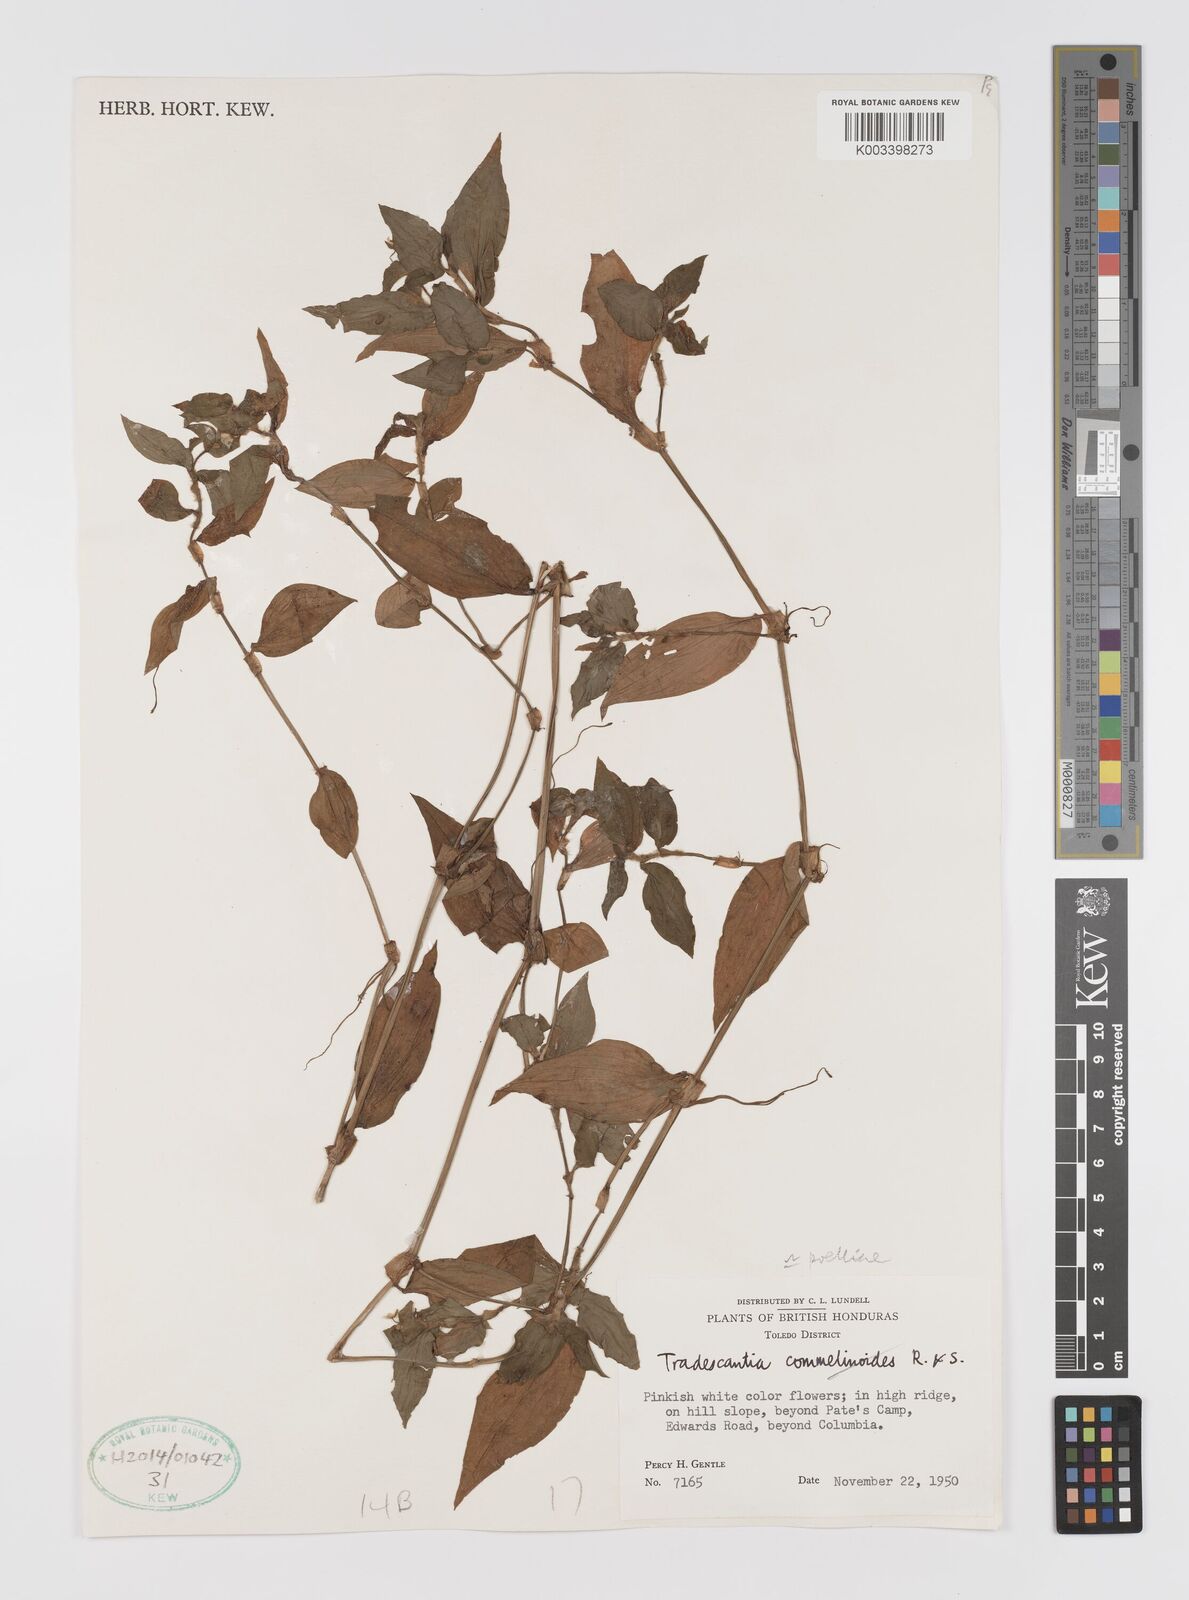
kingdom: Plantae
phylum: Tracheophyta
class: Liliopsida
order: Commelinales
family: Commelinaceae
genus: Tradescantia
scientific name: Tradescantia poelliae
